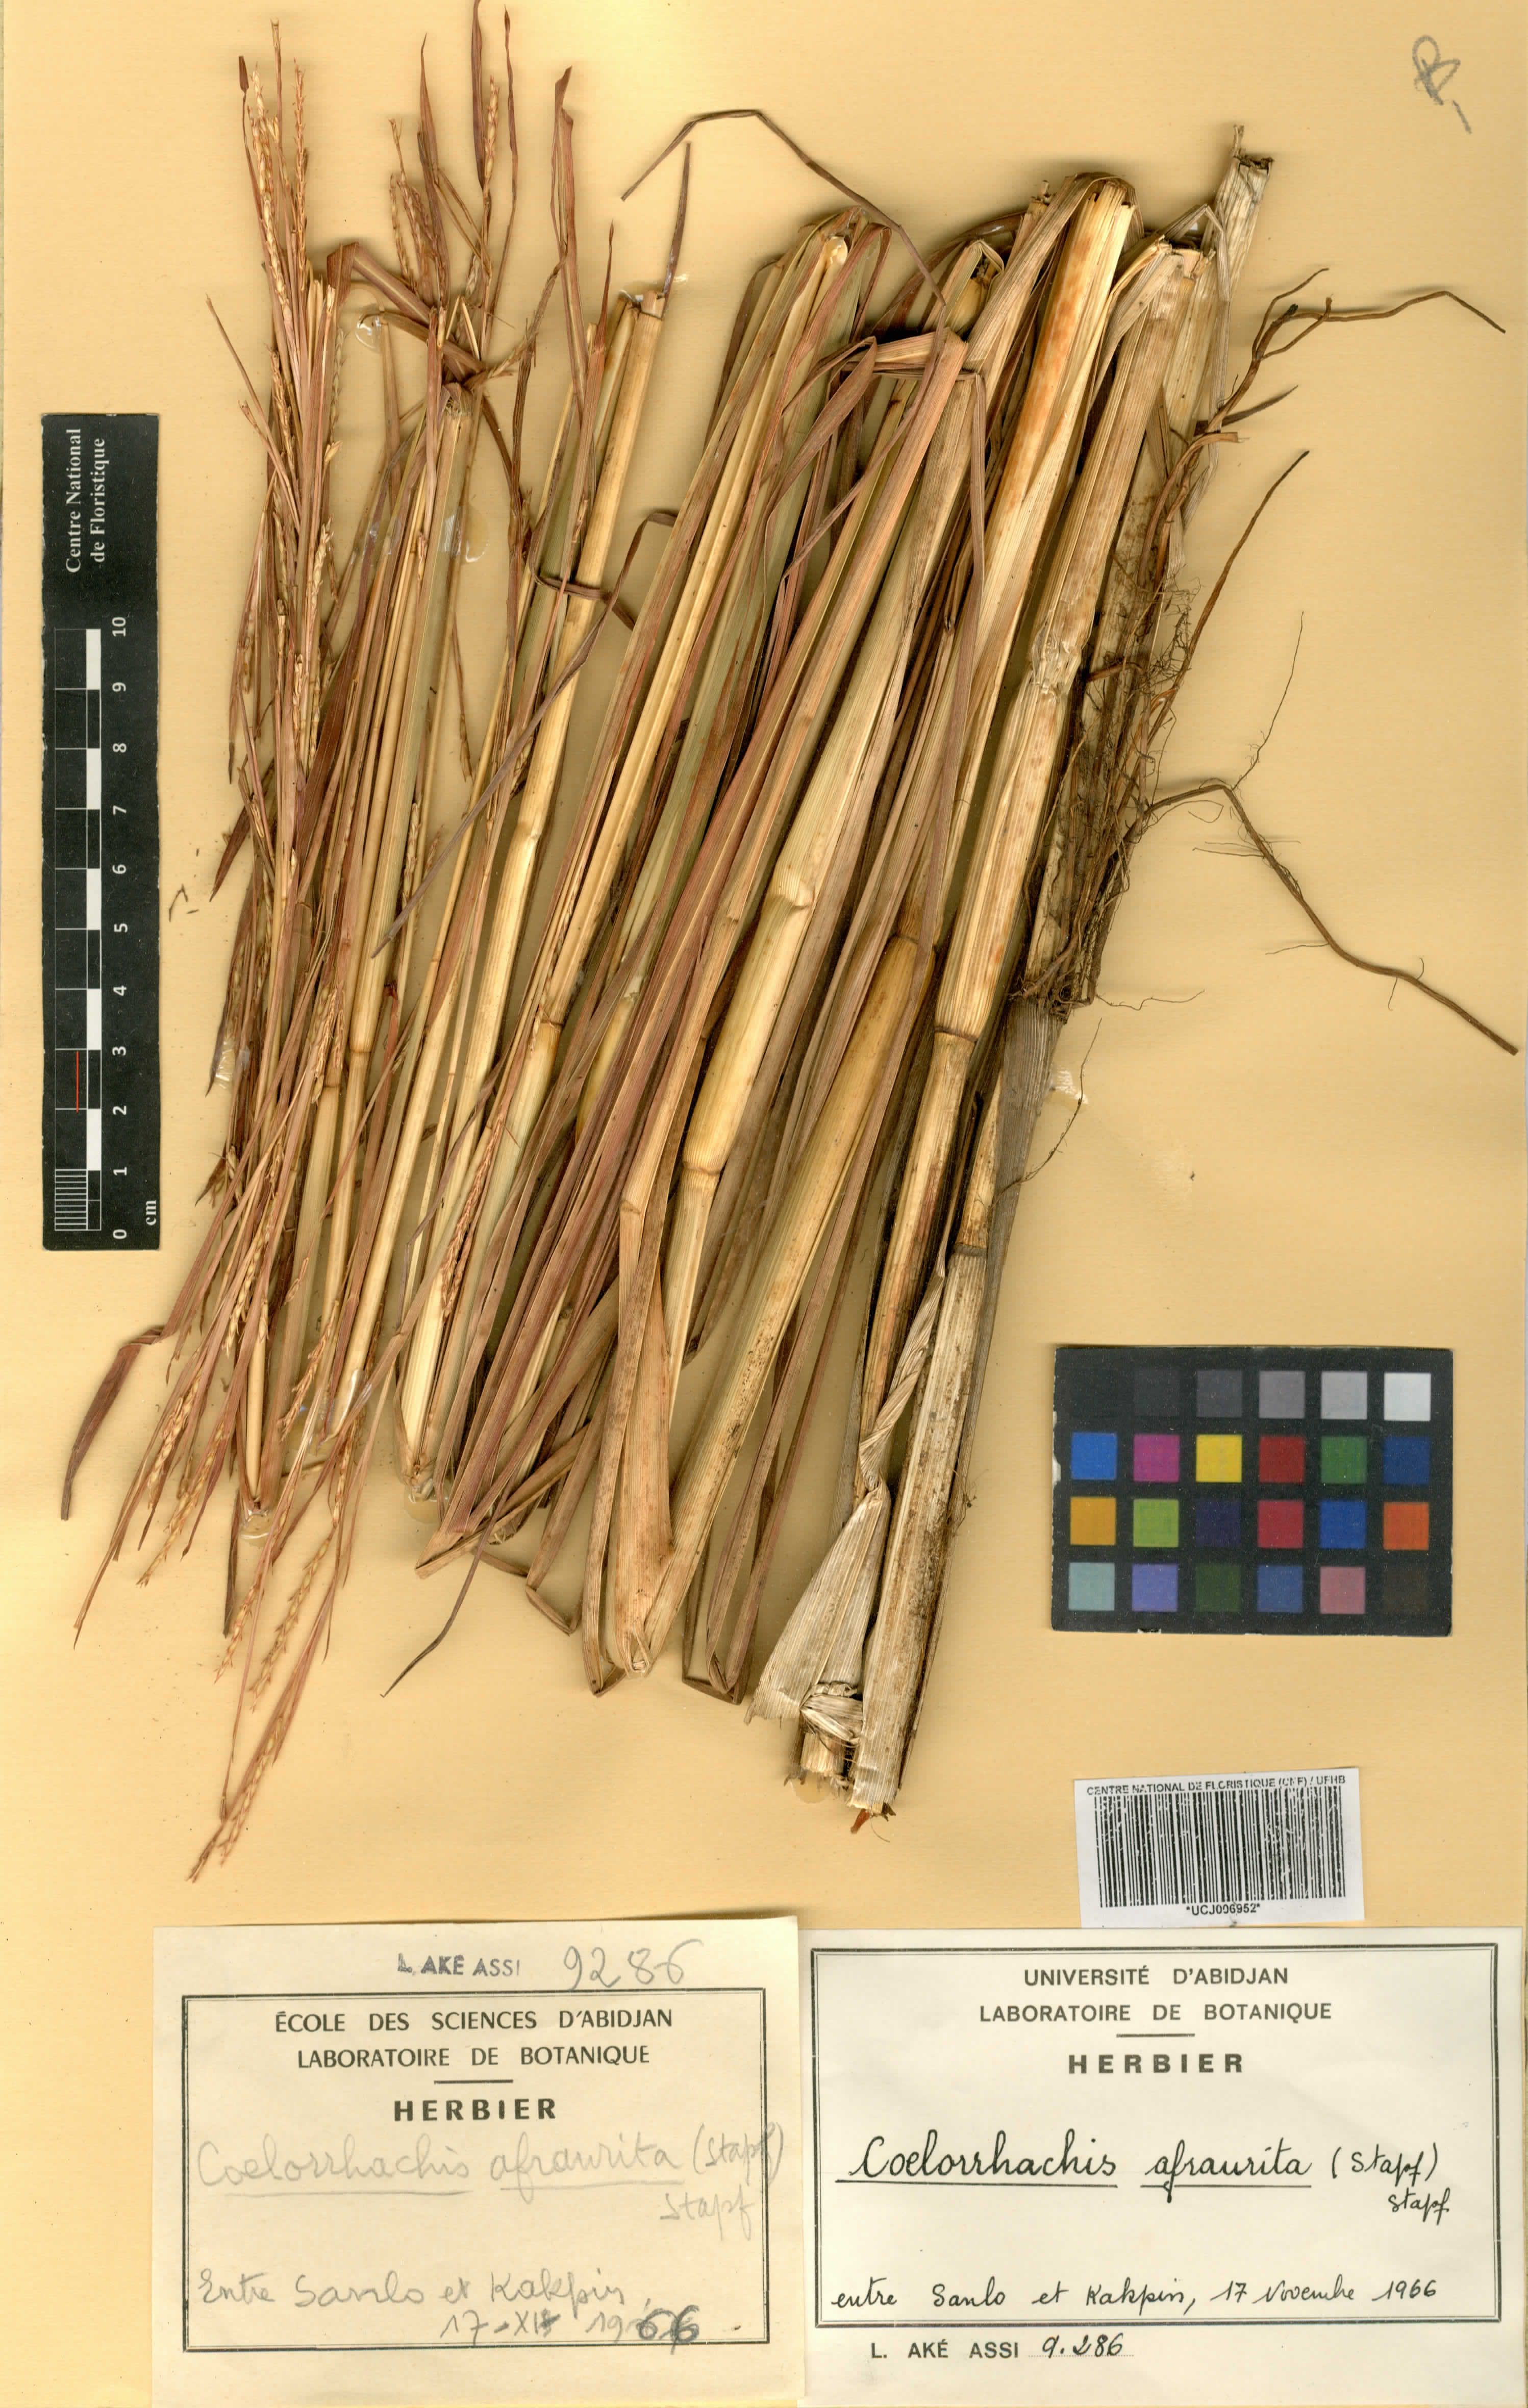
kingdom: Plantae
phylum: Tracheophyta
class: Liliopsida
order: Poales
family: Poaceae
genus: Rottboellia
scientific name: Rottboellia afraurita
